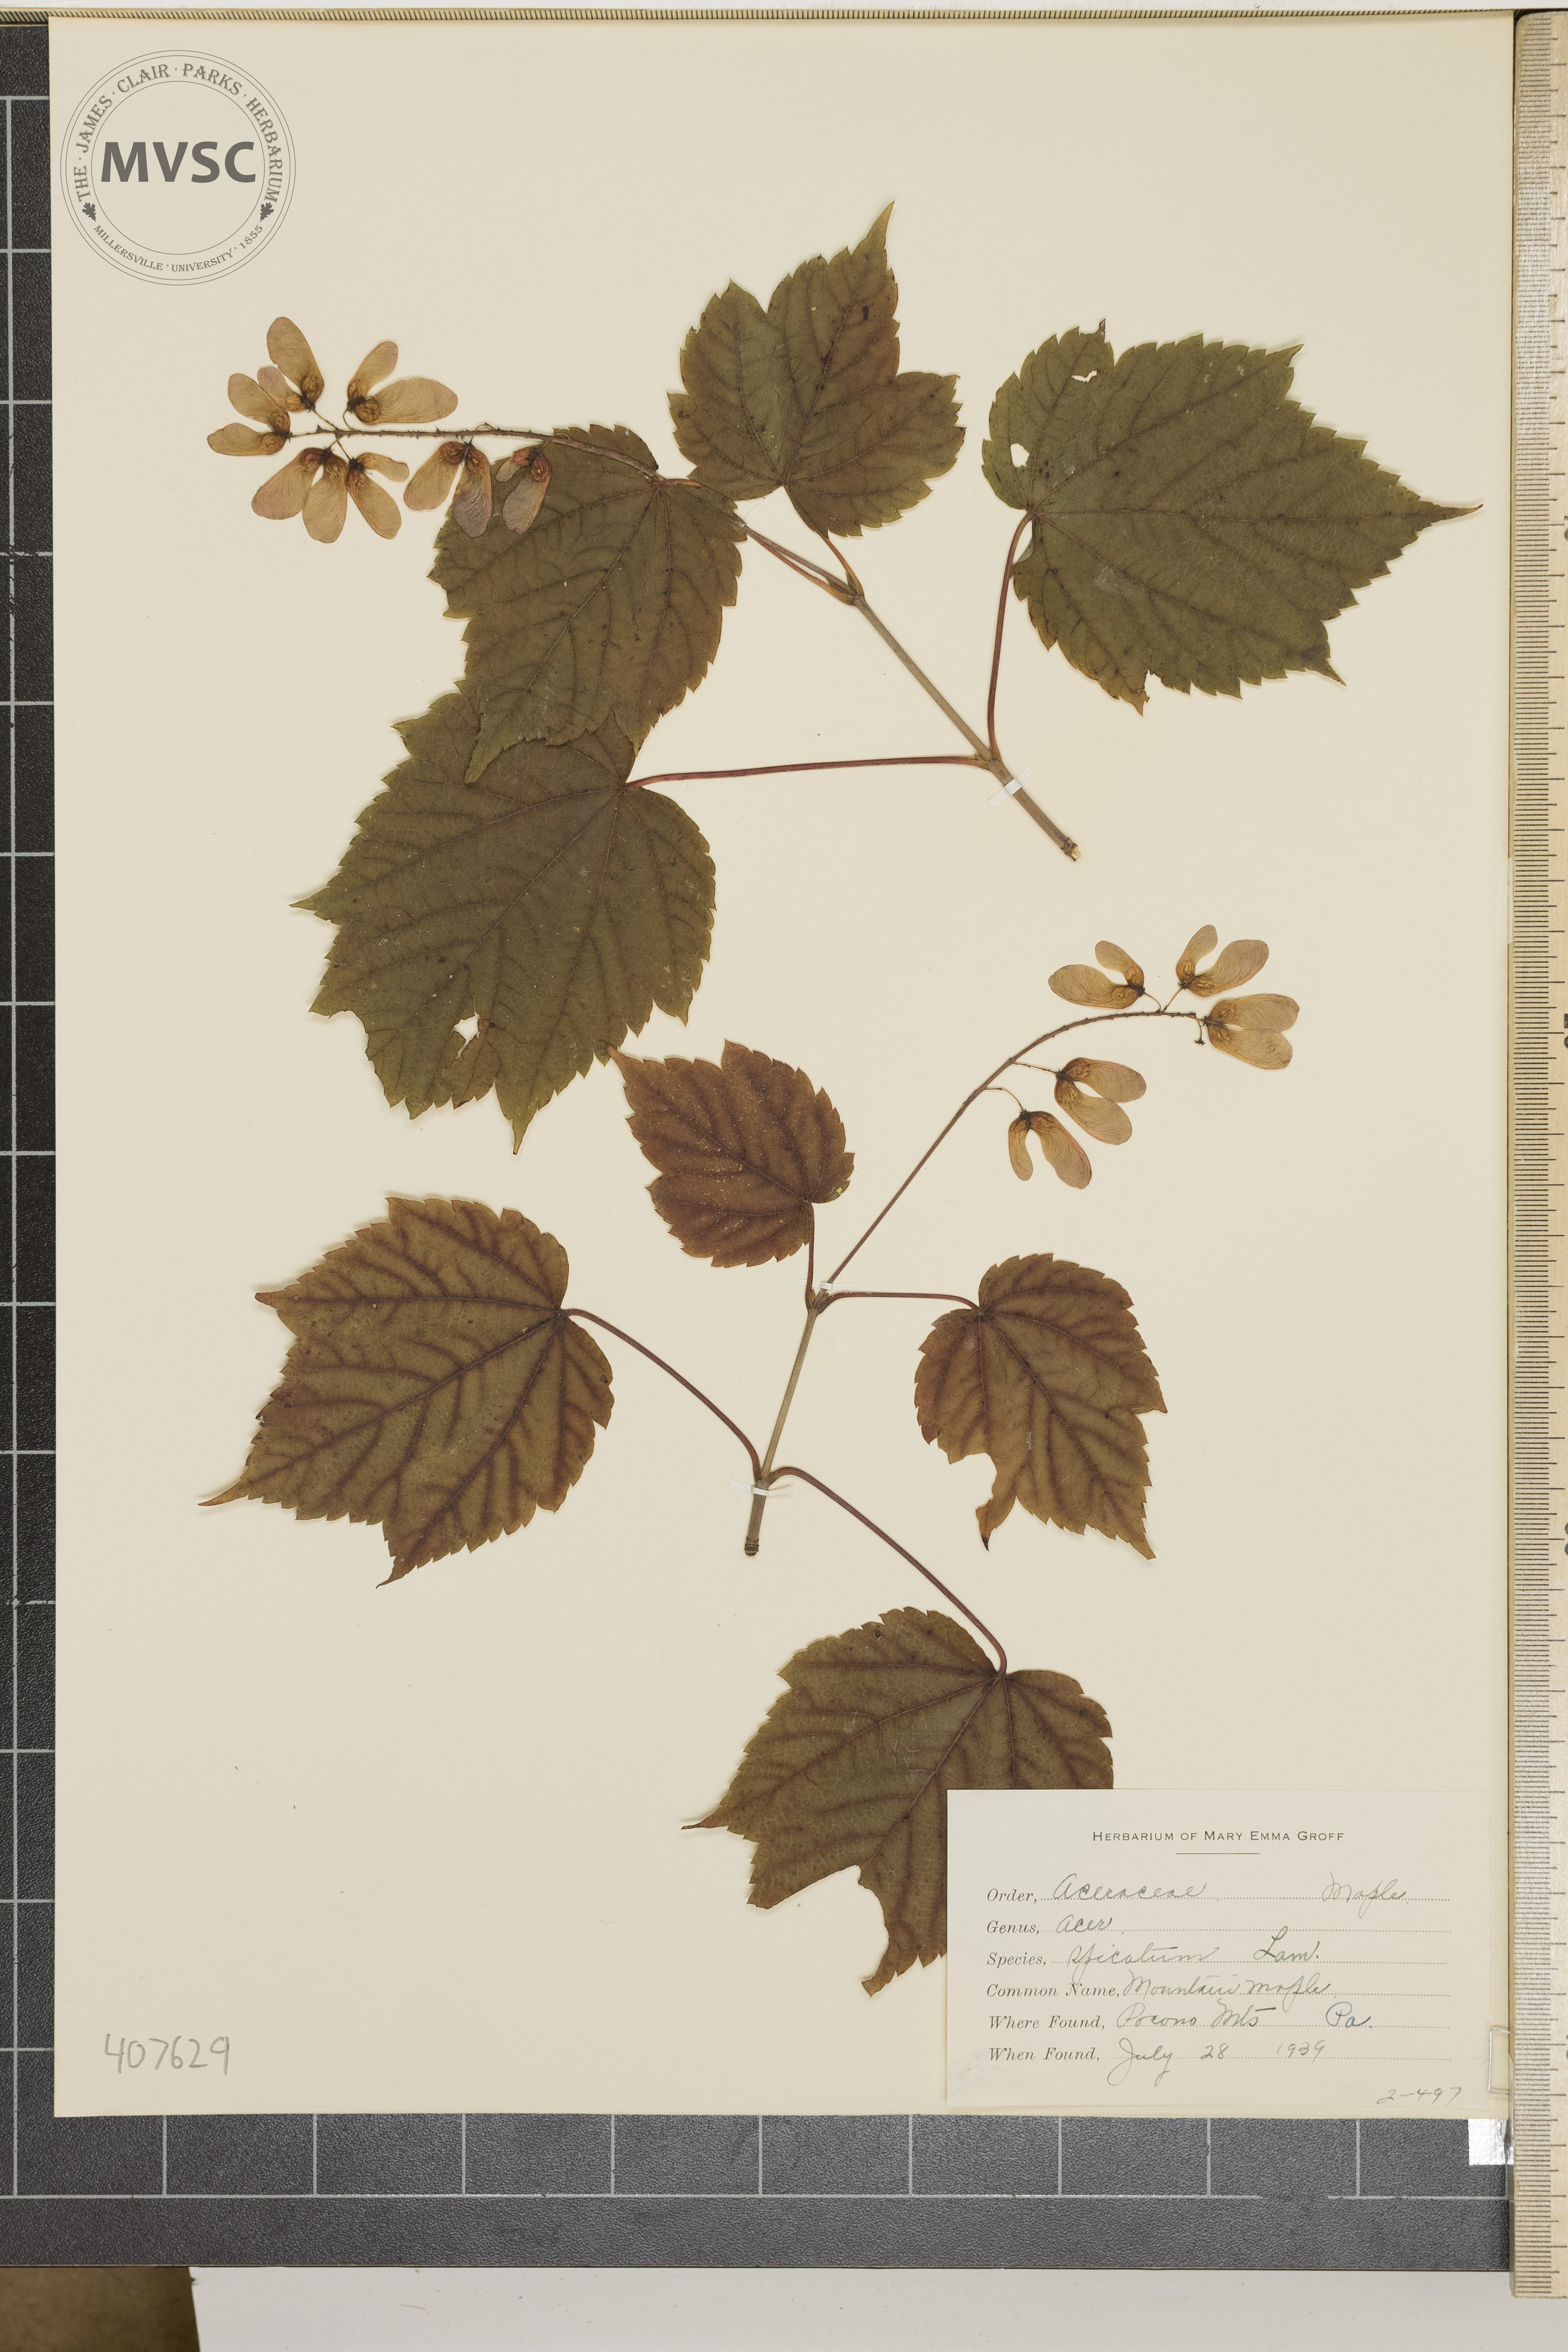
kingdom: Plantae
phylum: Tracheophyta
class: Magnoliopsida
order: Sapindales
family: Sapindaceae
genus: Acer
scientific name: Acer spicatum
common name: Mountain Maple
